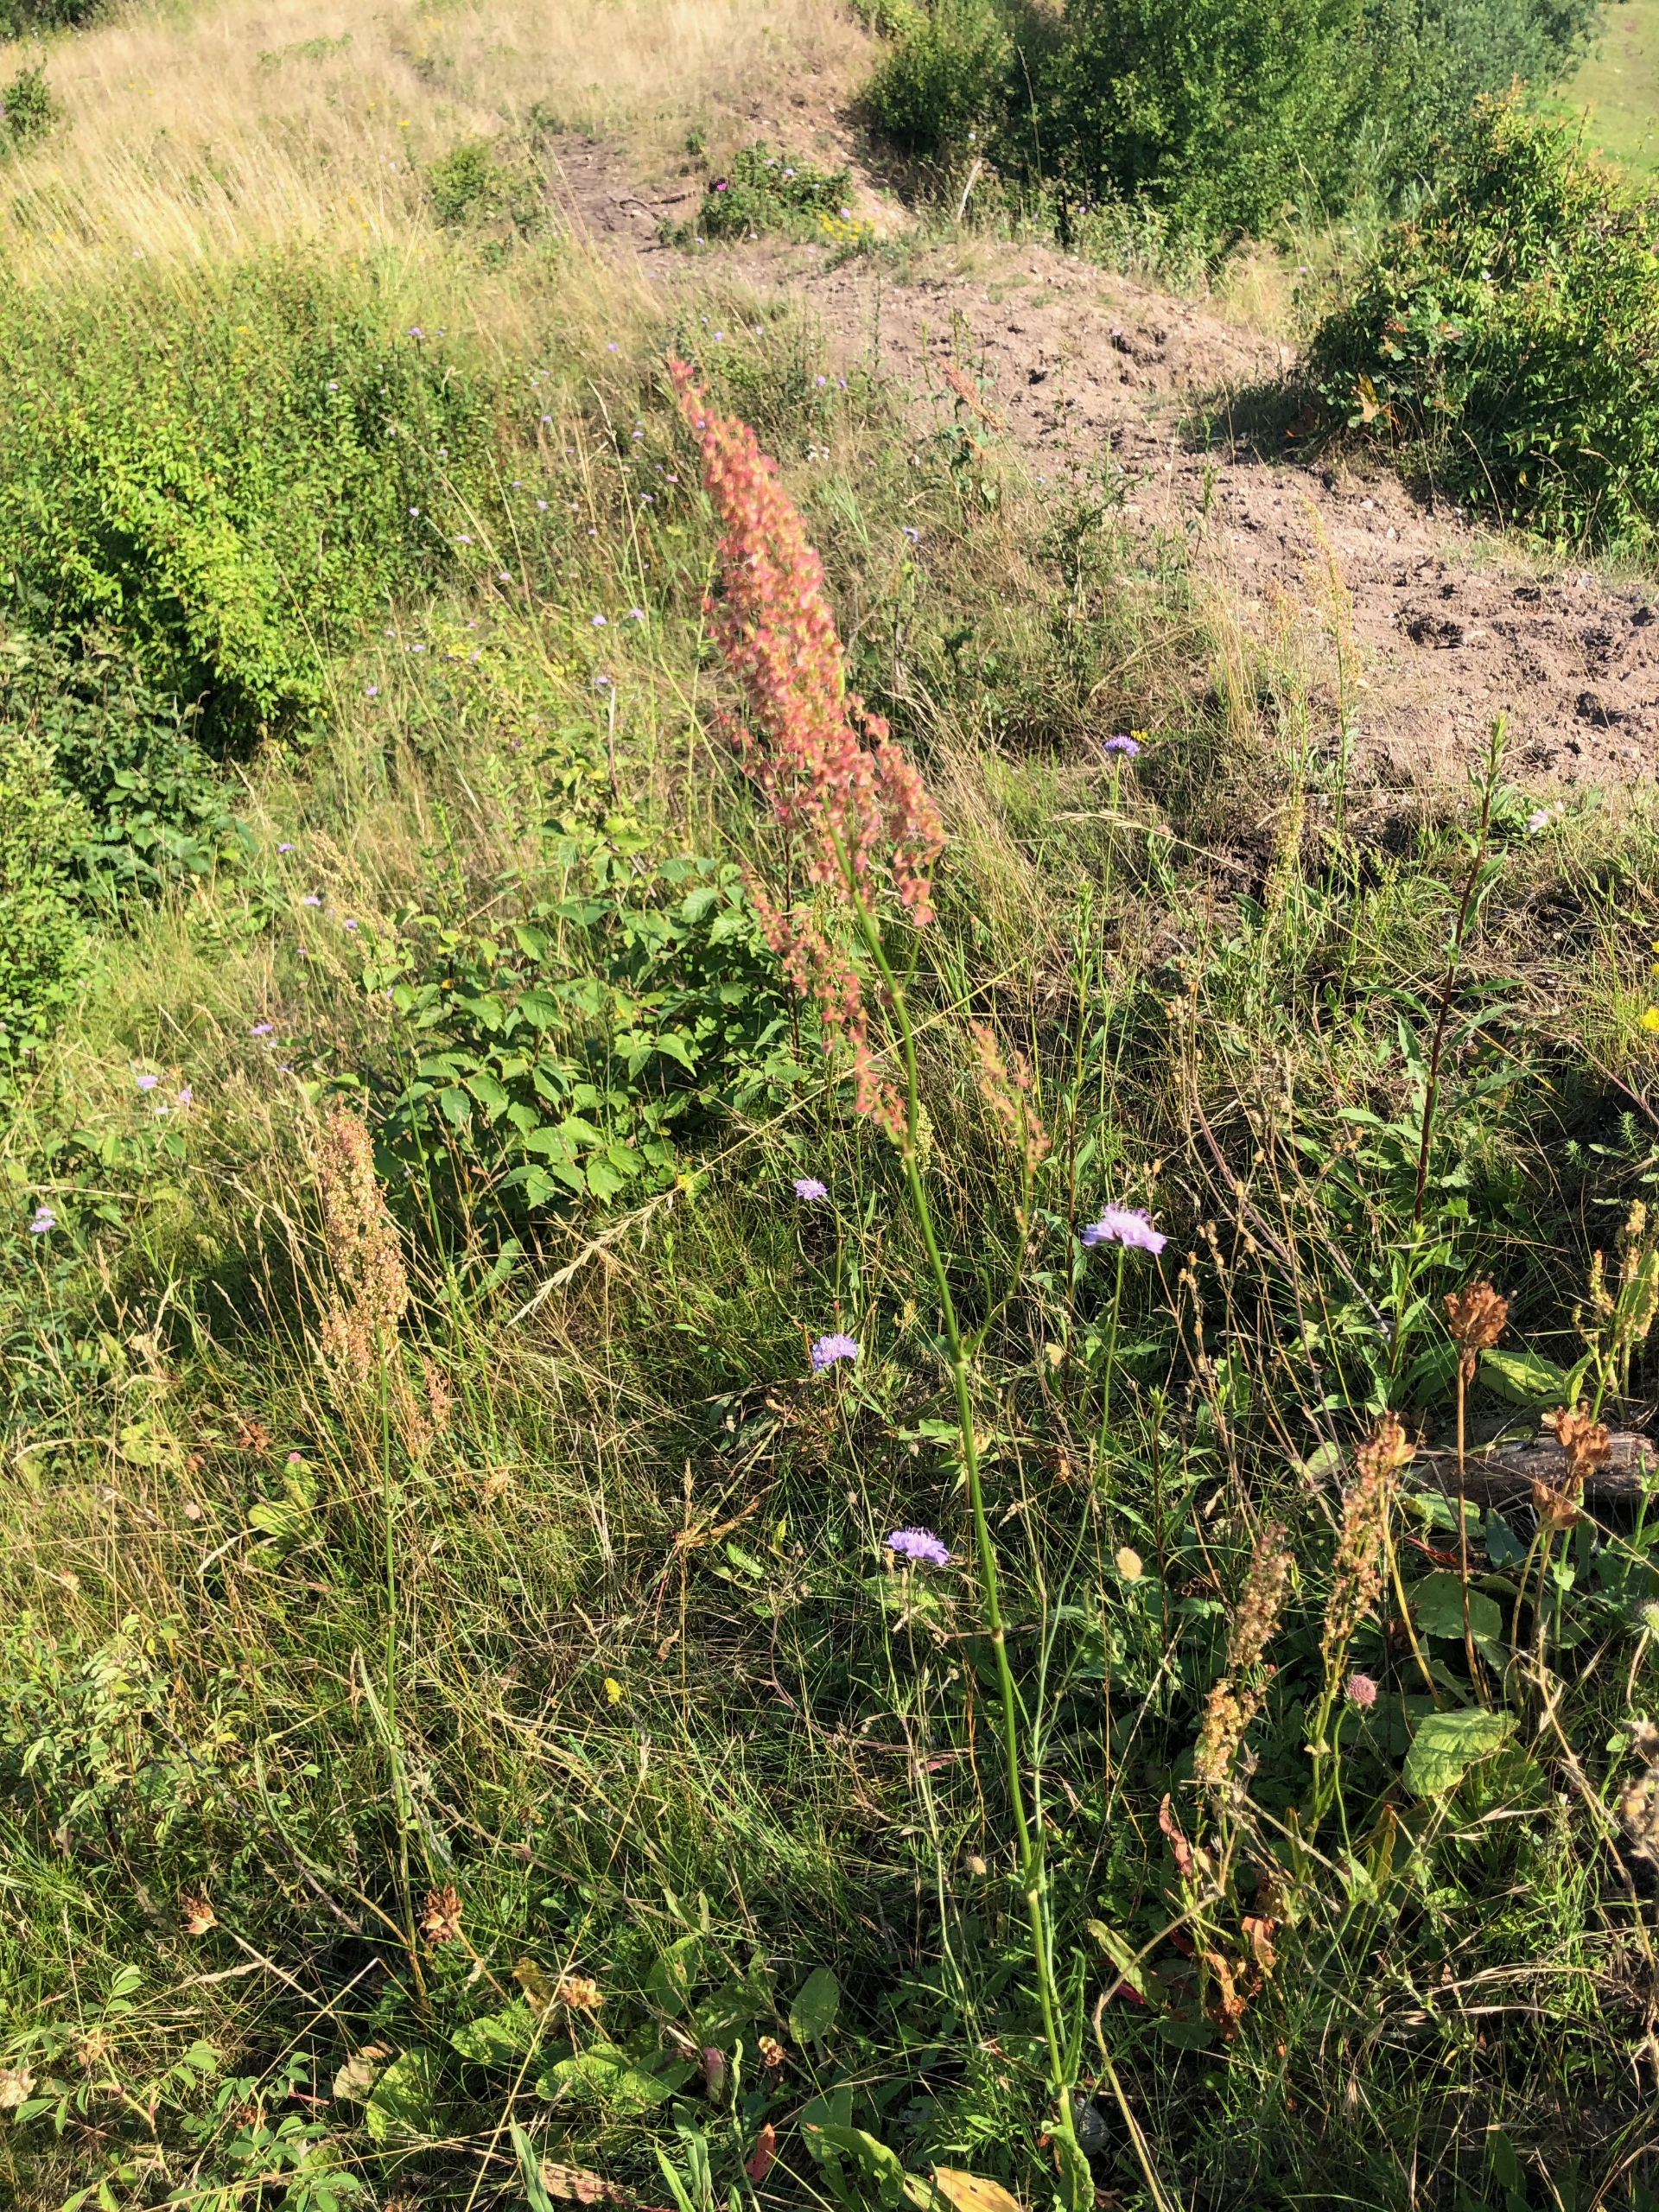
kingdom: Plantae
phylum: Tracheophyta
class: Magnoliopsida
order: Caryophyllales
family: Polygonaceae
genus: Rumex
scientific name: Rumex acetosa
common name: Almindelig syre
